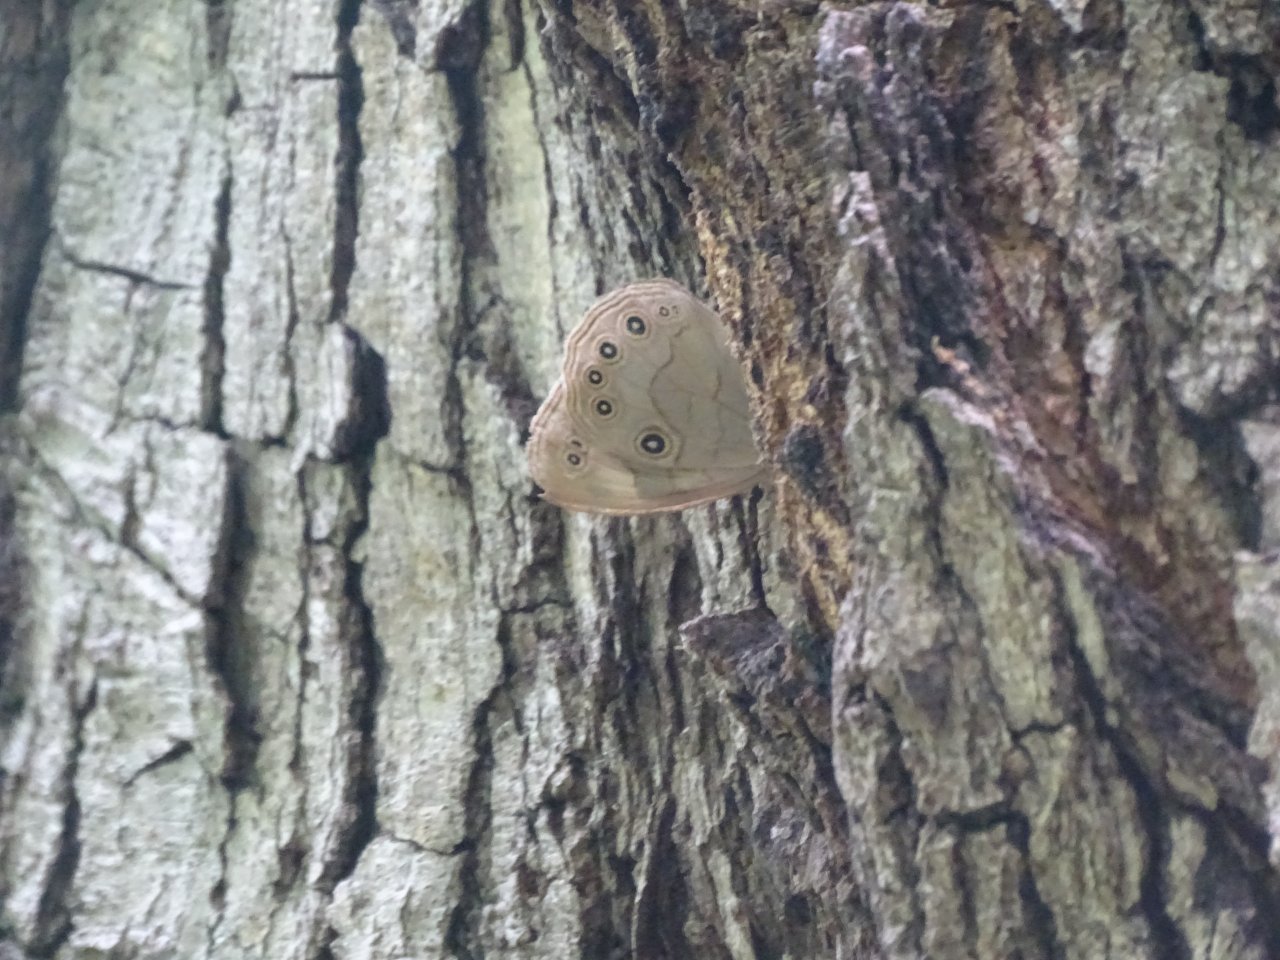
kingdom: Animalia
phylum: Arthropoda
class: Insecta
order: Lepidoptera
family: Nymphalidae
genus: Lethe
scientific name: Lethe eurydice
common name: Appalachian Eyed Brown
